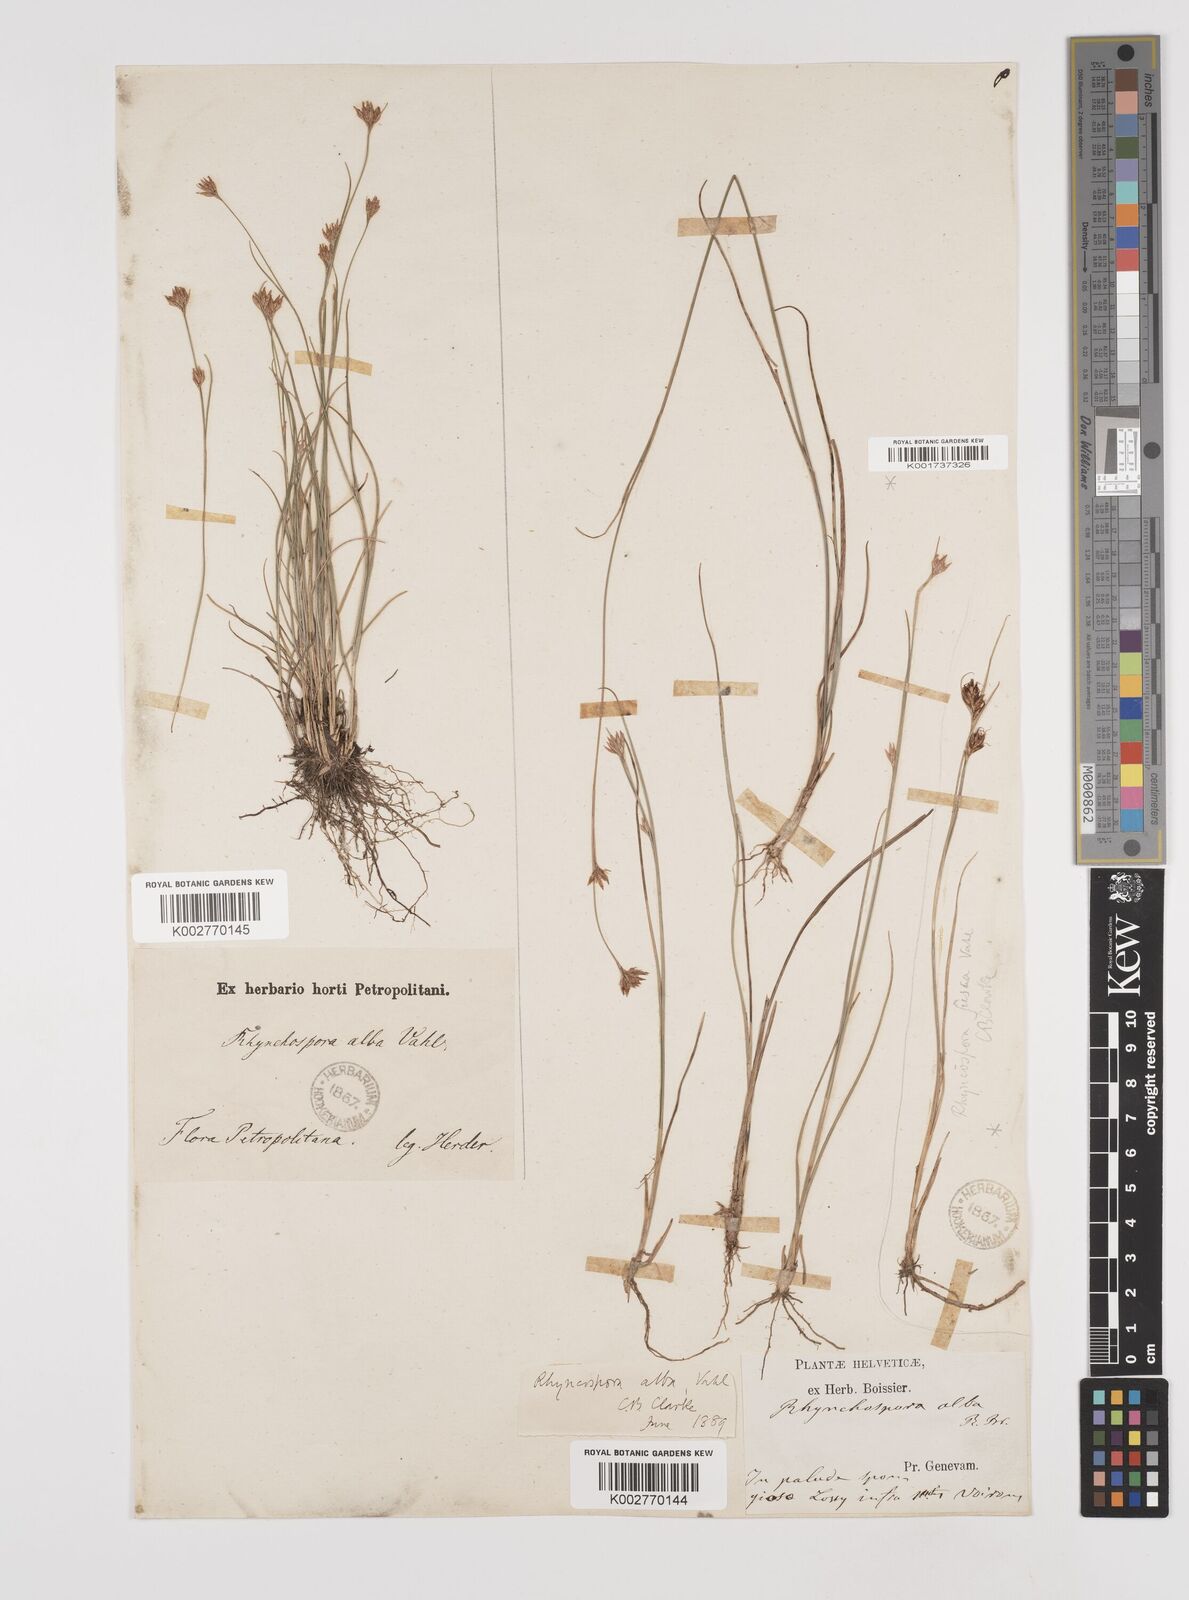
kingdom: Plantae
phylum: Tracheophyta
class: Liliopsida
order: Poales
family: Cyperaceae
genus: Rhynchospora
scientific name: Rhynchospora alba
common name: White beak-sedge
